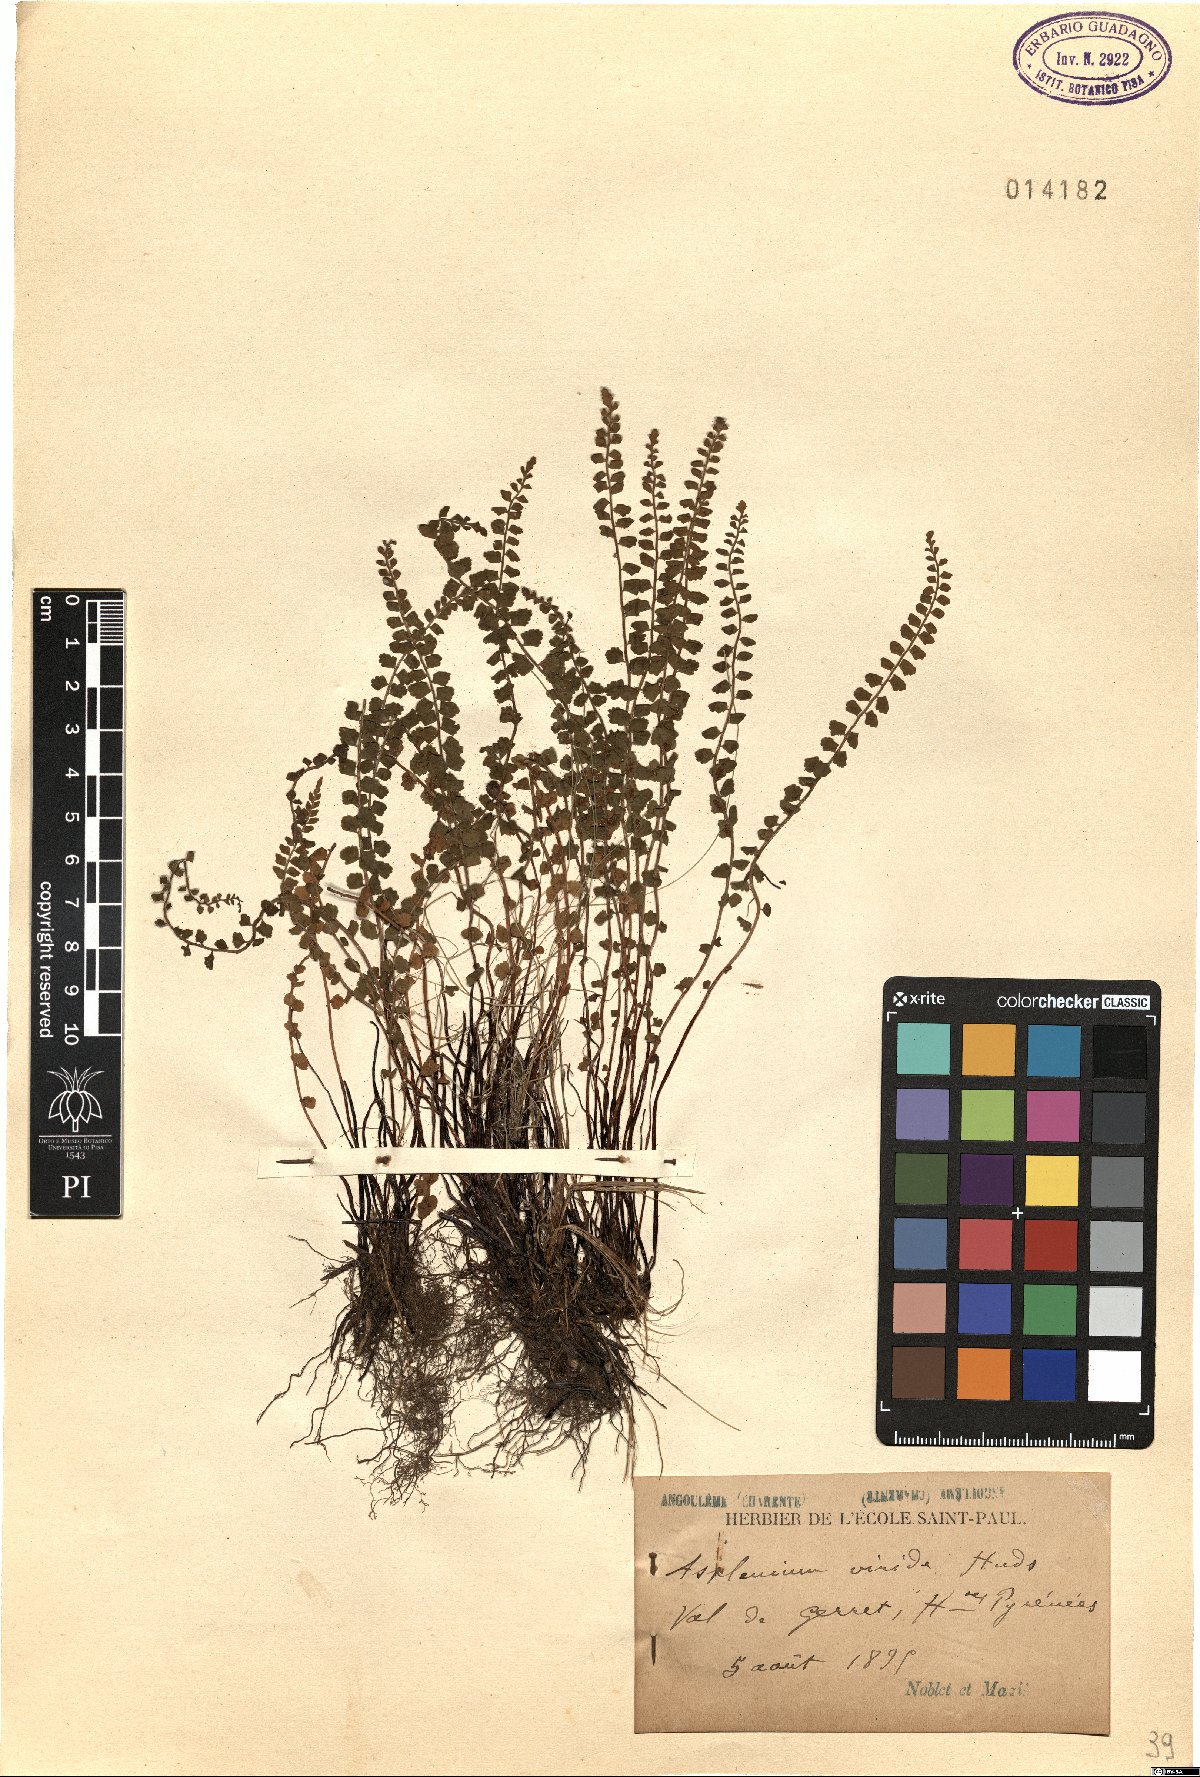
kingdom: Plantae
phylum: Tracheophyta
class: Polypodiopsida
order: Polypodiales
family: Aspleniaceae
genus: Asplenium
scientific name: Asplenium viride
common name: Green spleenwort
